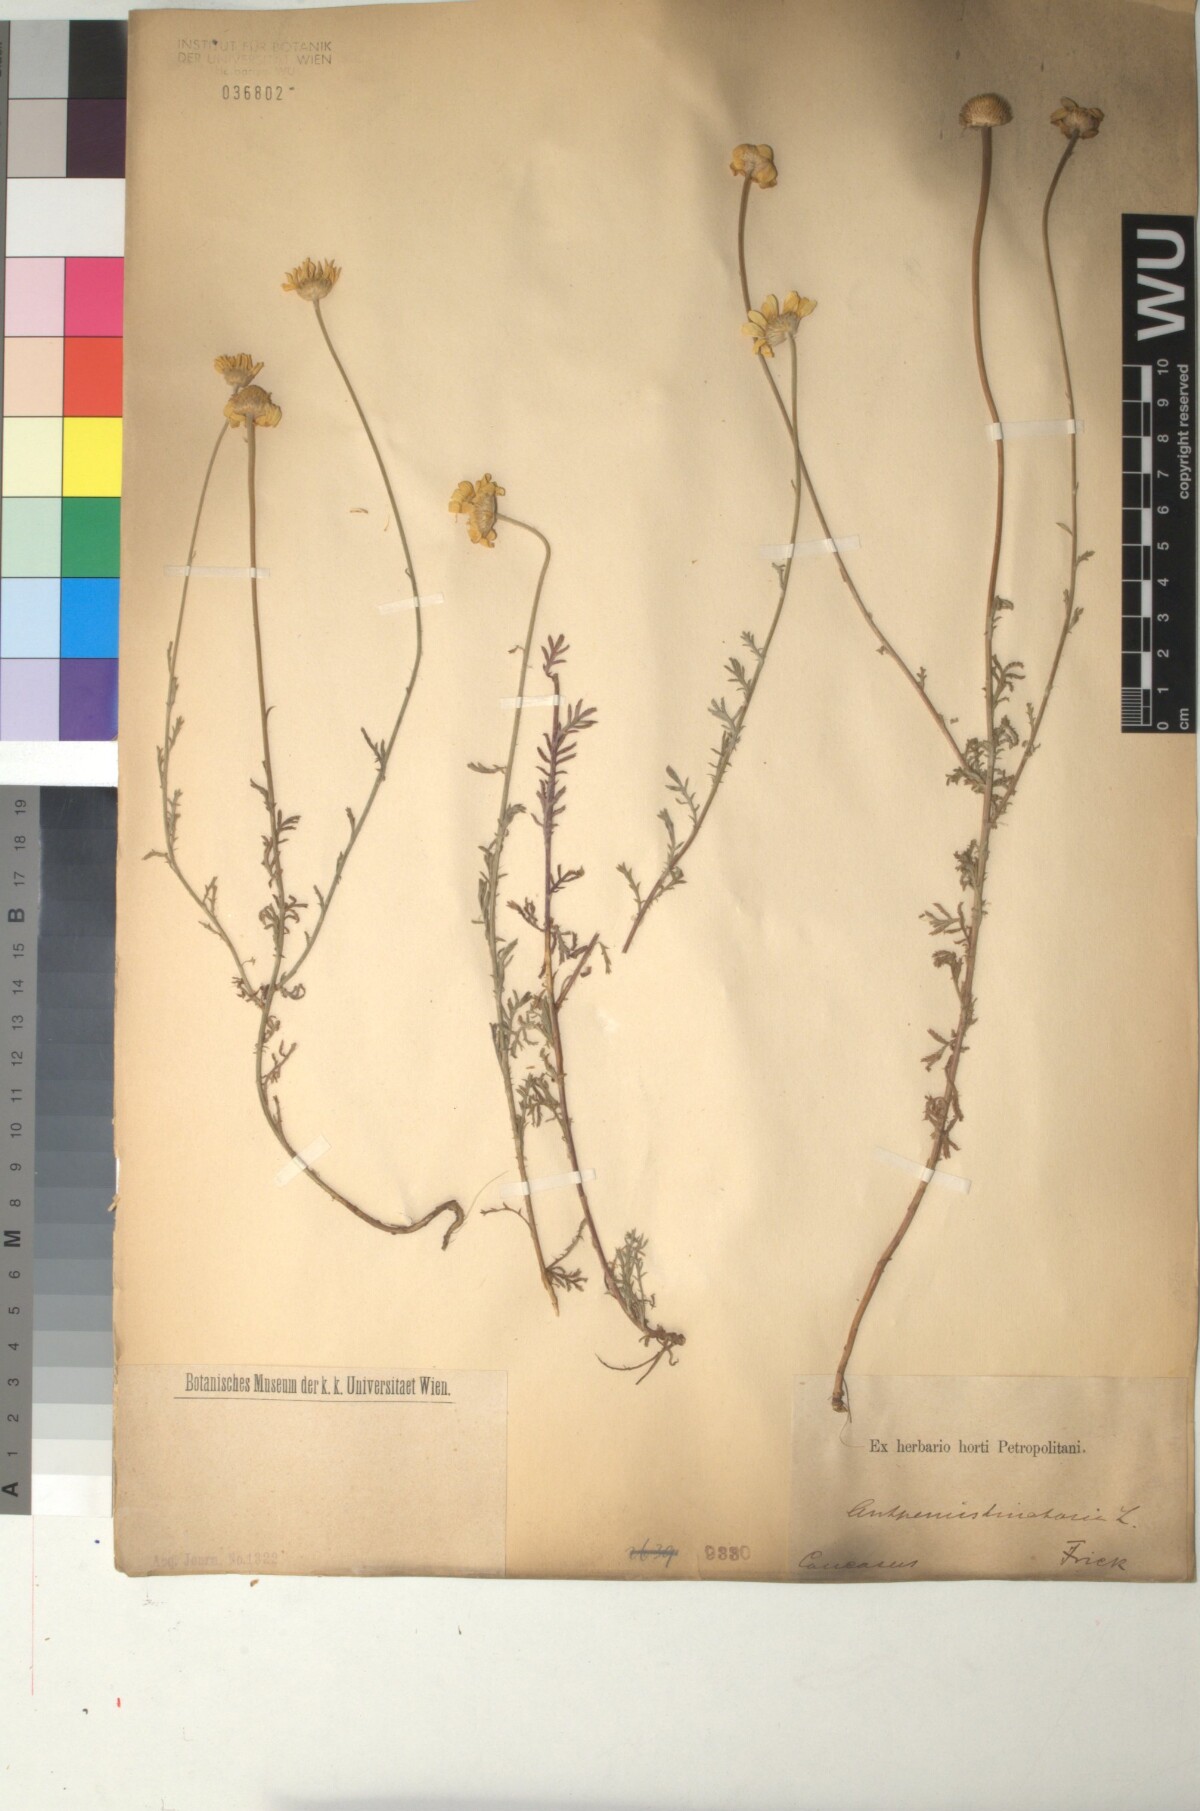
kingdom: Plantae
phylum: Tracheophyta
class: Magnoliopsida
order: Asterales
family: Asteraceae
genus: Cota
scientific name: Cota tinctoria
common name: Golden chamomile
